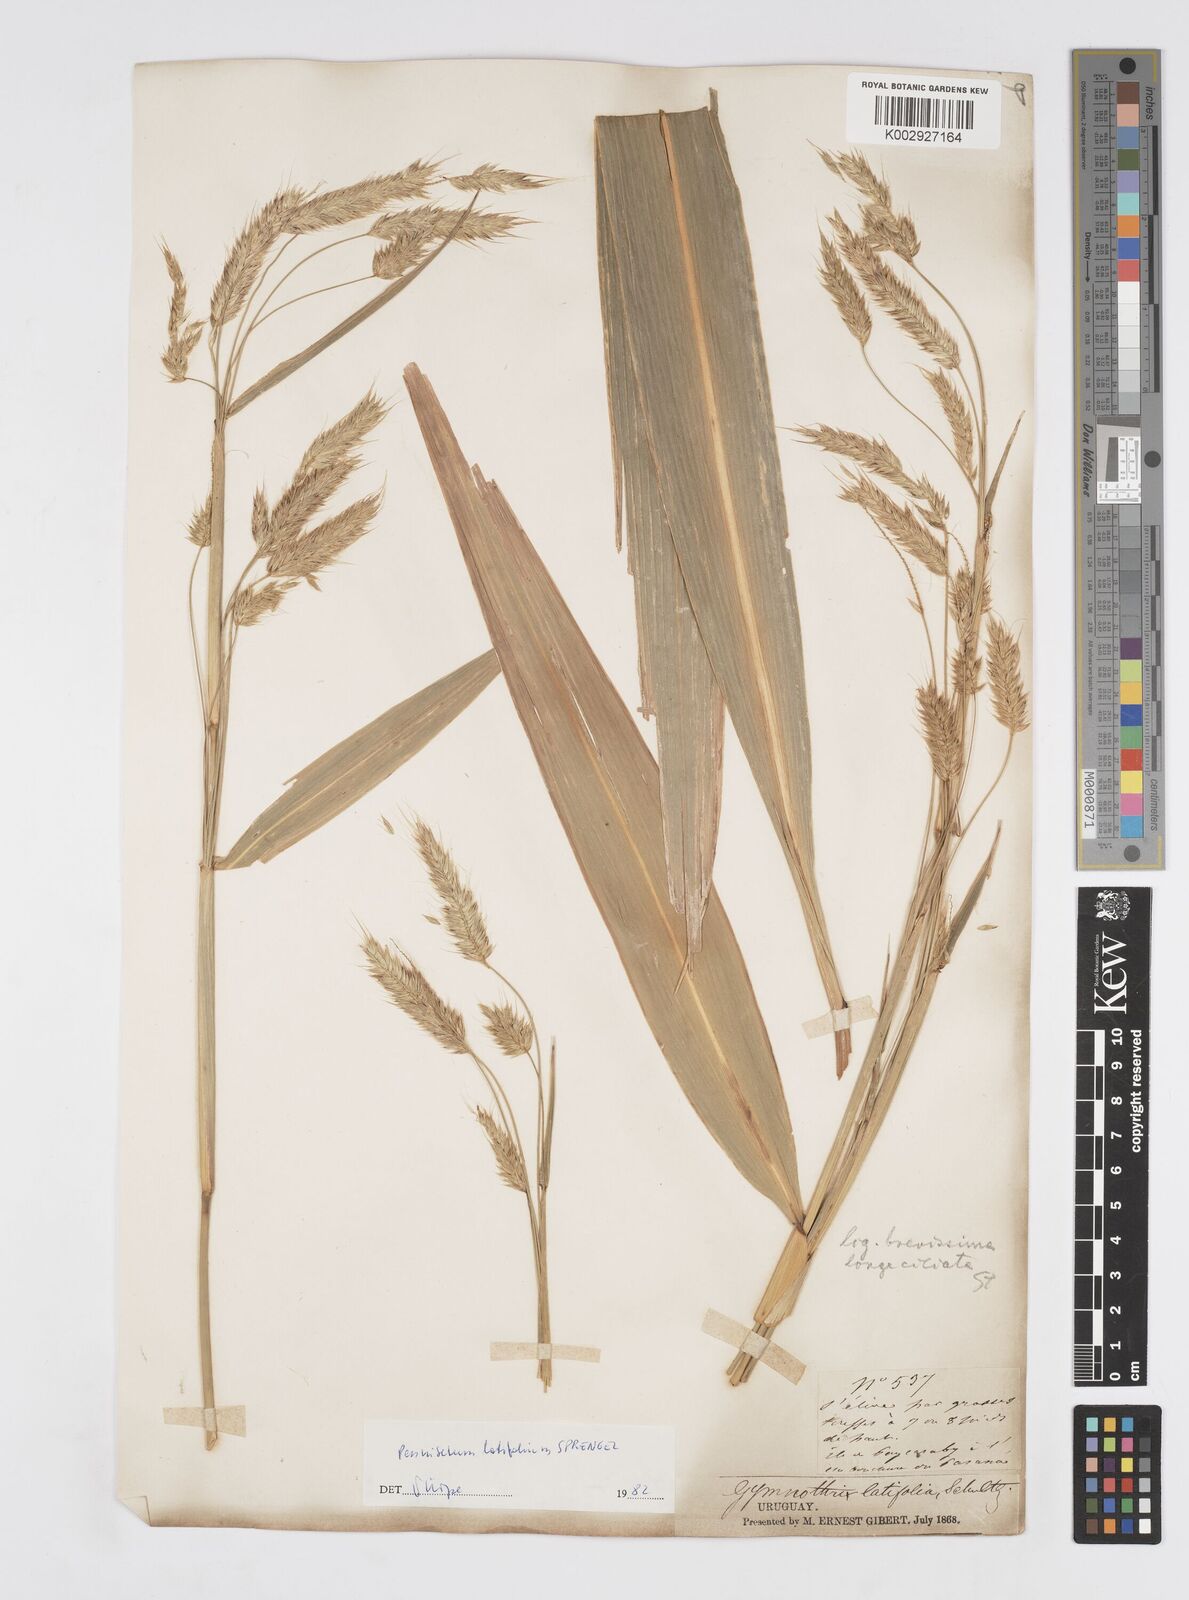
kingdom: Plantae
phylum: Tracheophyta
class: Liliopsida
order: Poales
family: Poaceae
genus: Cenchrus
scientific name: Cenchrus latifolius
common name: Sandbur
